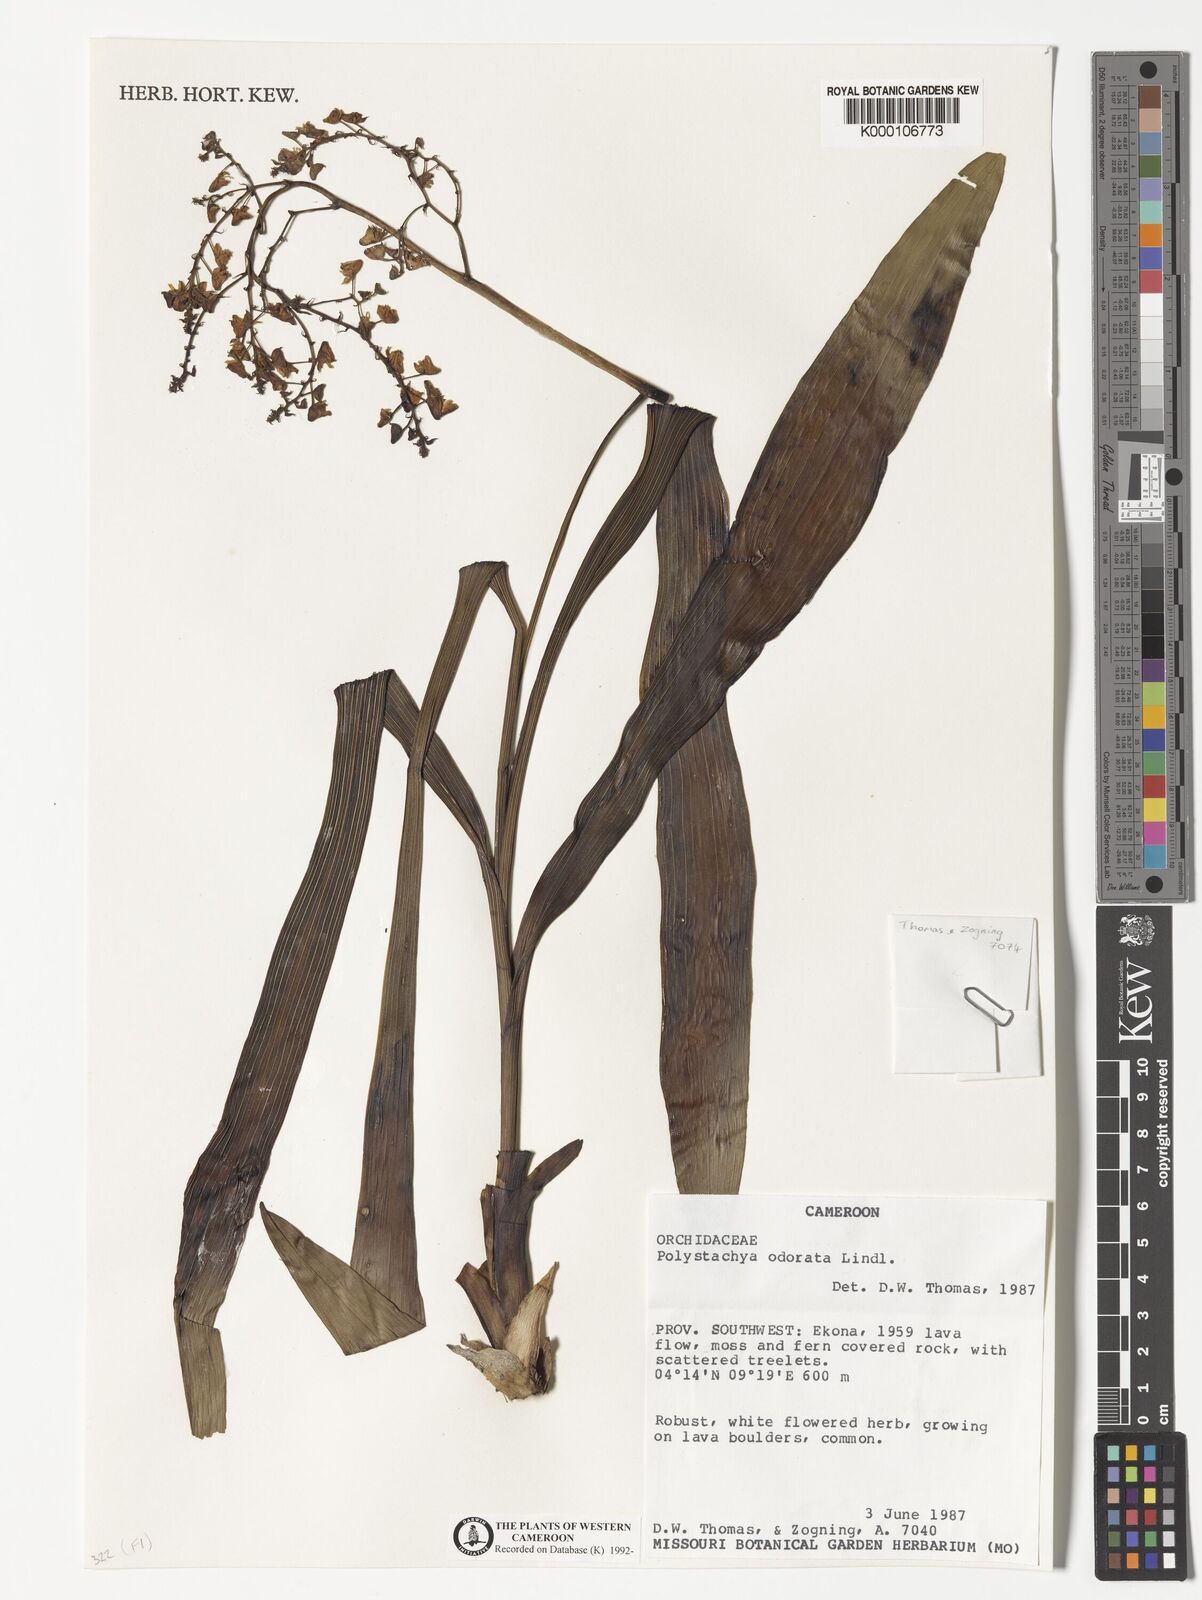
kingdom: Plantae
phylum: Tracheophyta
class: Liliopsida
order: Asparagales
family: Orchidaceae
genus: Polystachya
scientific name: Polystachya odorata
